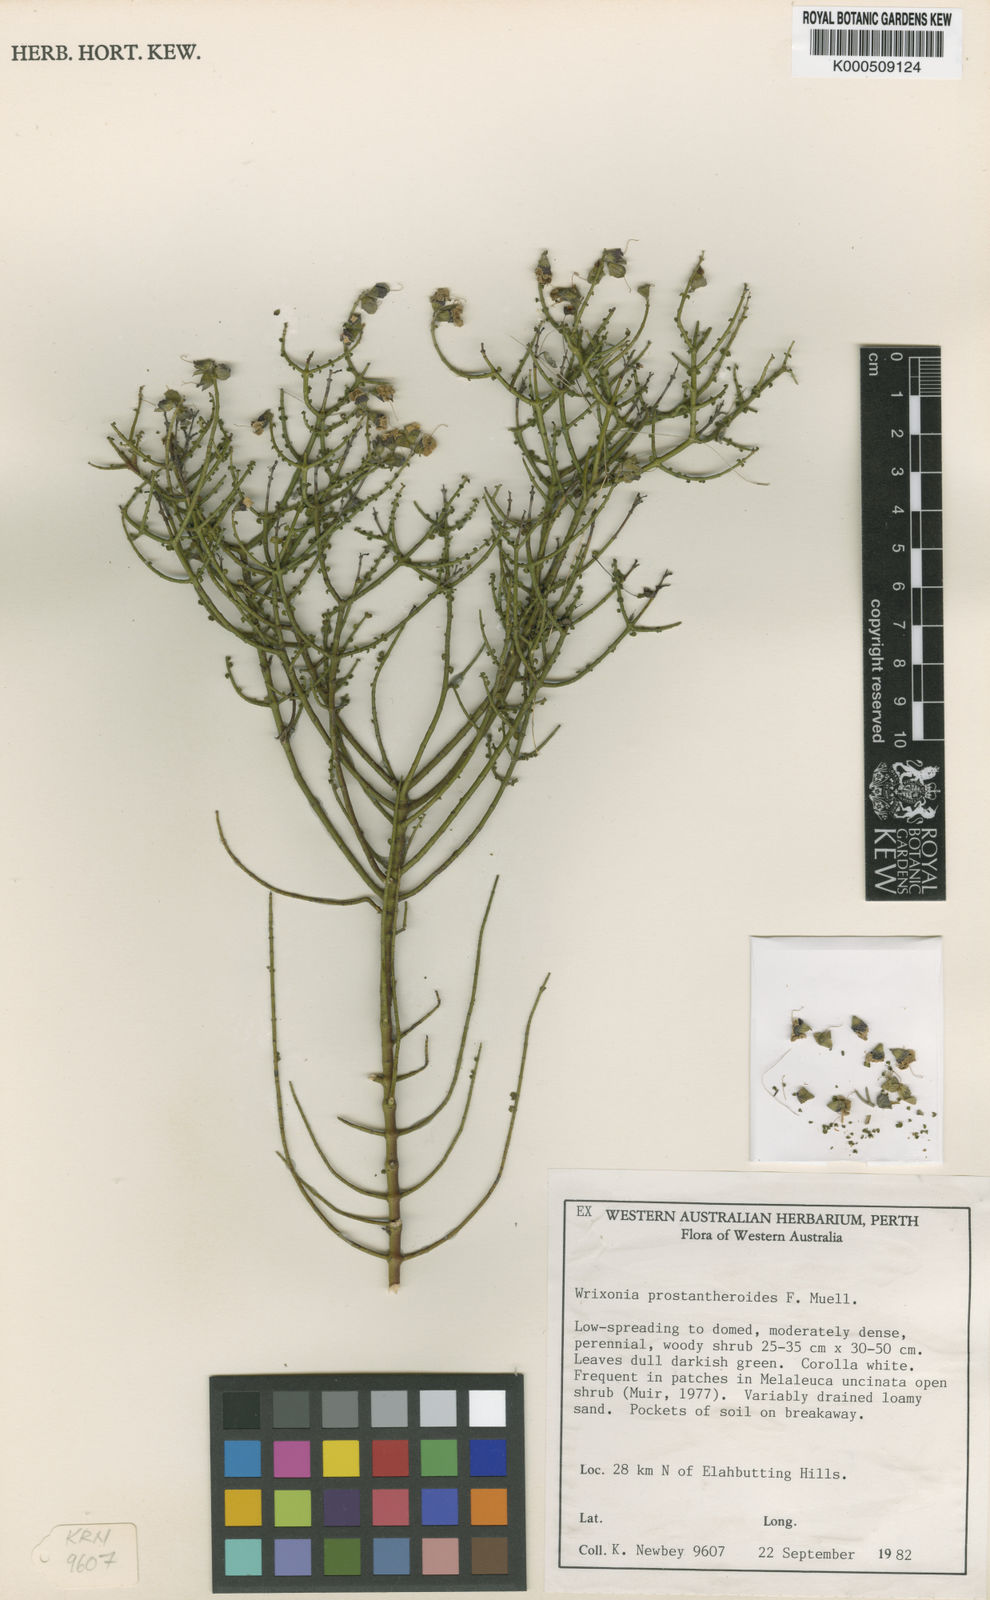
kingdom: Plantae
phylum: Tracheophyta
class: Magnoliopsida
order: Lamiales
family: Lamiaceae
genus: Prostanthera
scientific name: Prostanthera prostantheroides
